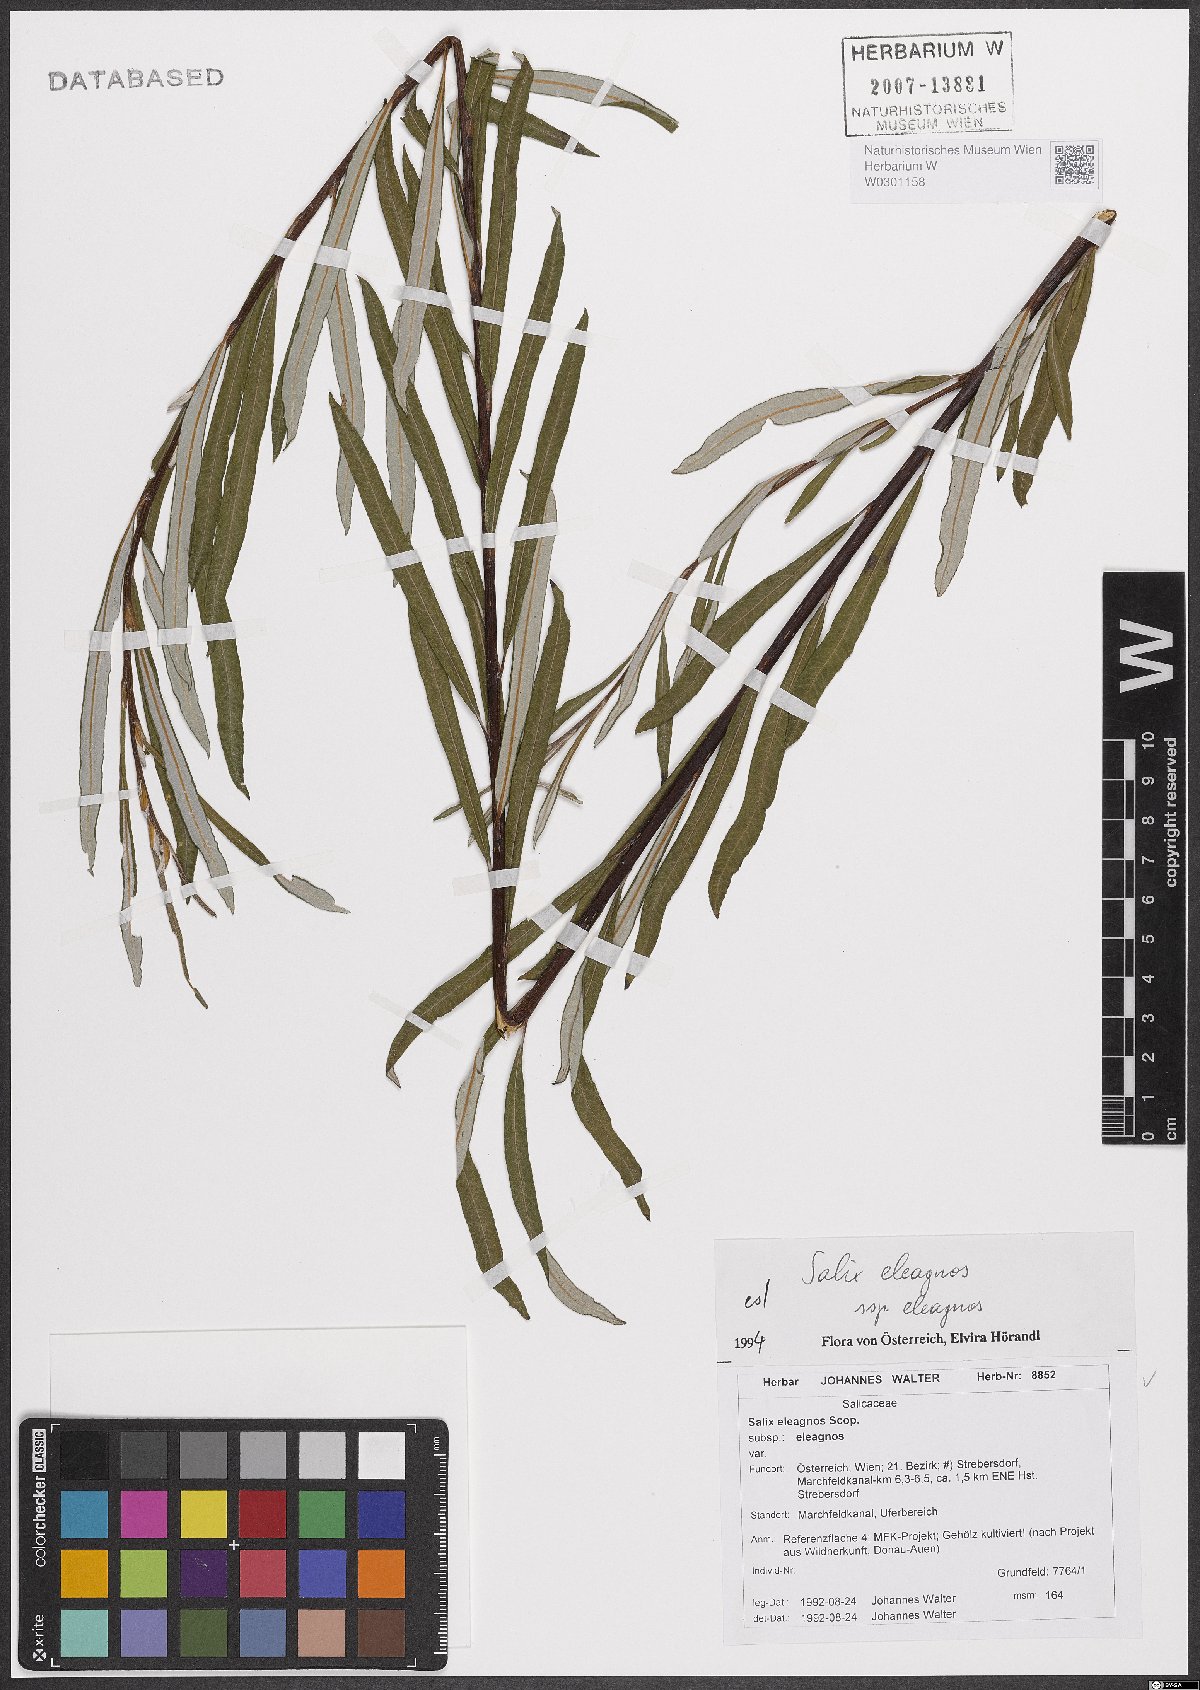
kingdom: Plantae
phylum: Tracheophyta
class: Magnoliopsida
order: Malpighiales
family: Salicaceae
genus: Salix
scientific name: Salix eleagnos
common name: Elaeagnus willow
